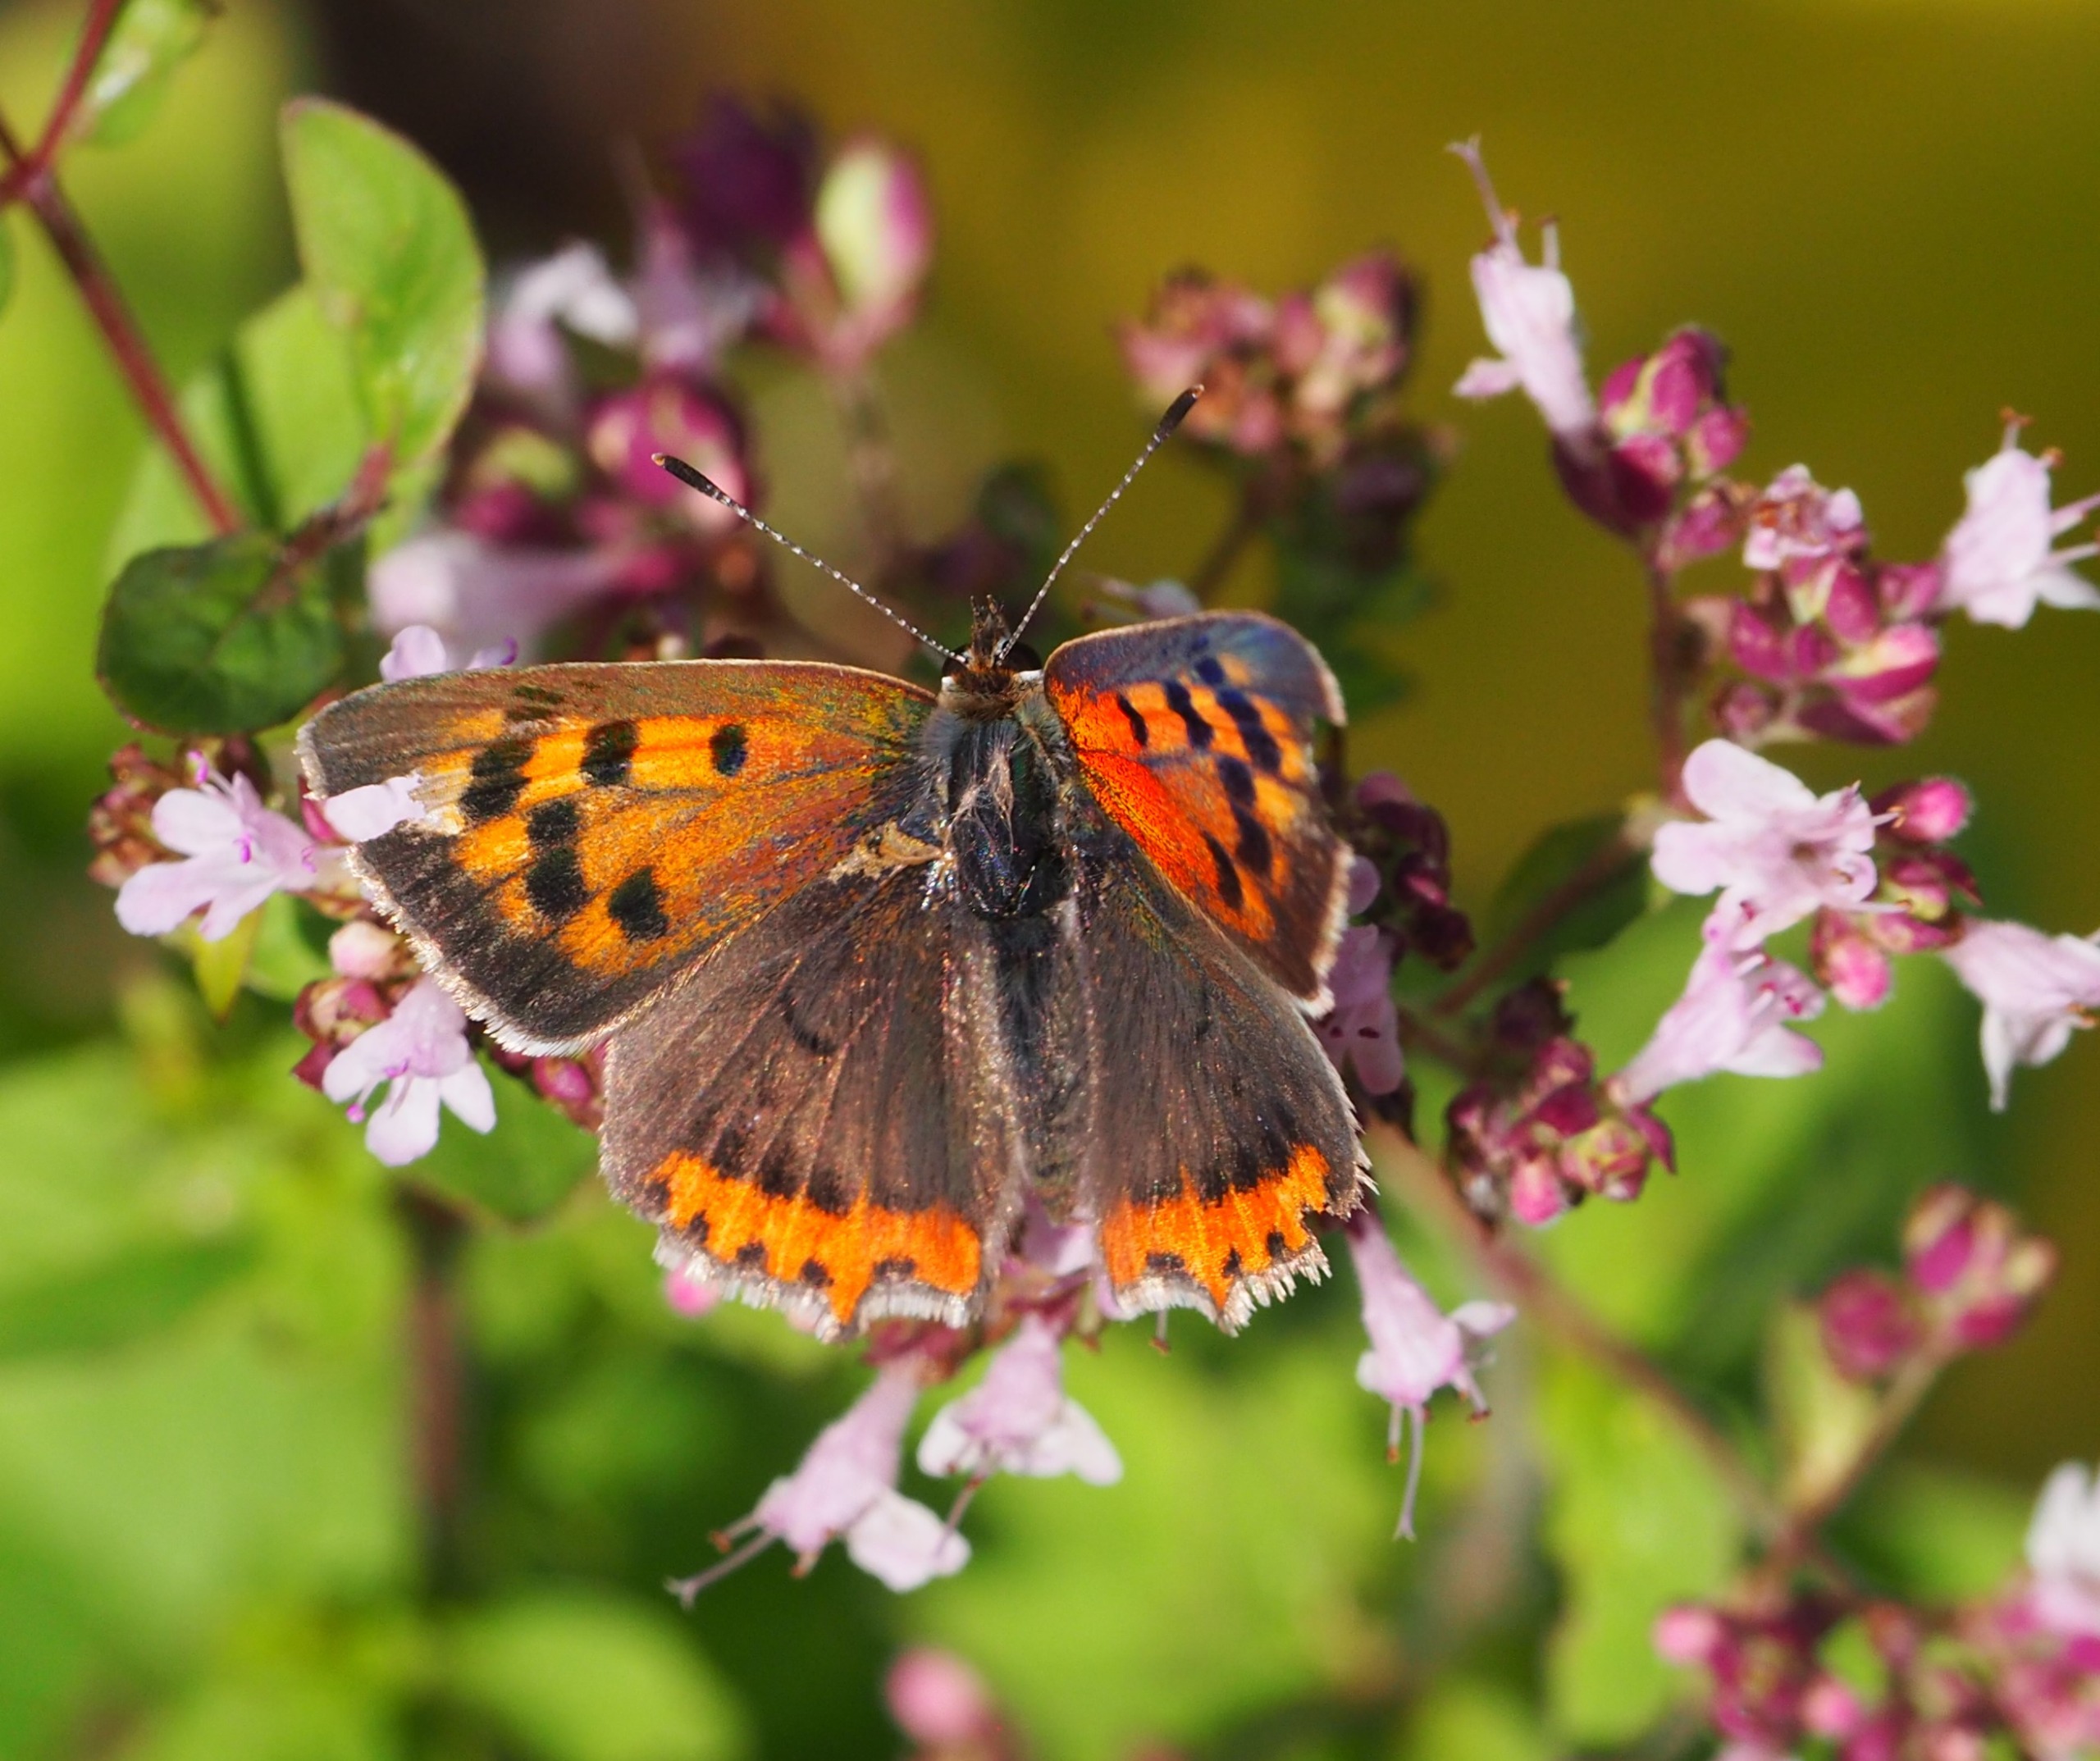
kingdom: Animalia
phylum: Arthropoda
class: Insecta
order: Lepidoptera
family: Lycaenidae
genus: Lycaena
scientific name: Lycaena phlaeas
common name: Lille ildfugl
